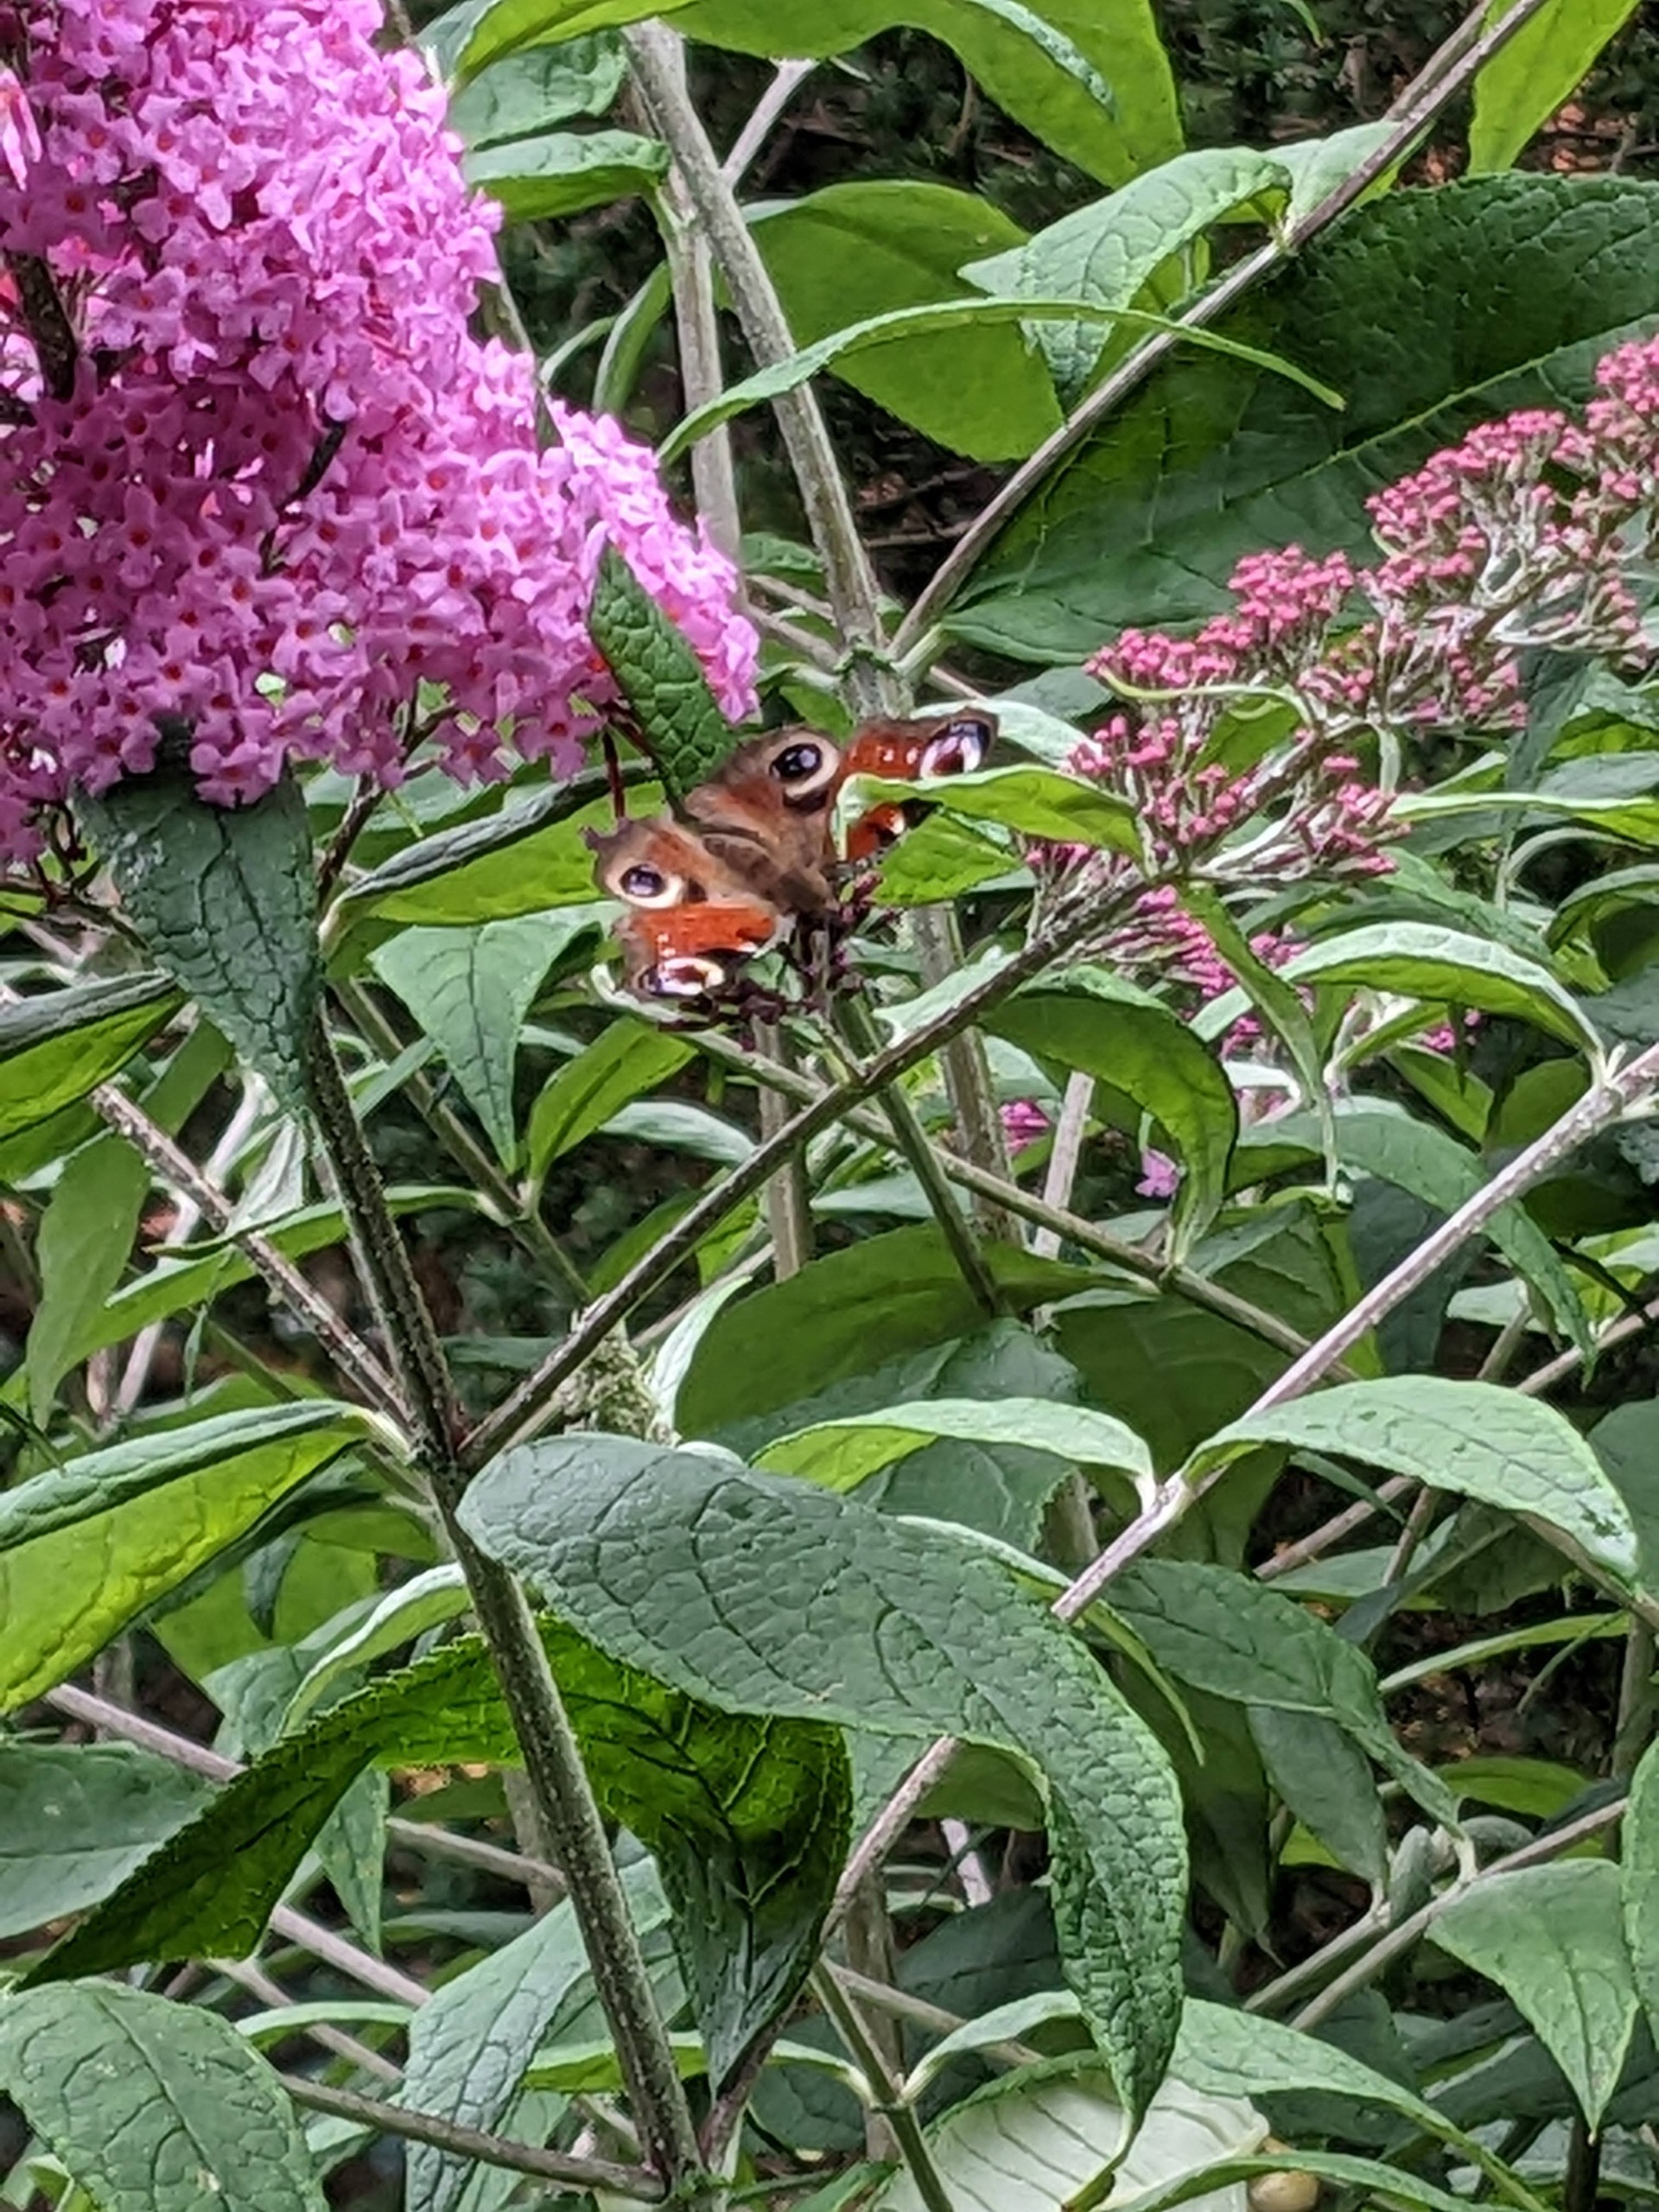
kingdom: Animalia
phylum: Arthropoda
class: Insecta
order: Lepidoptera
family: Nymphalidae
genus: Aglais
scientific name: Aglais io
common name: Dagpåfugleøje
